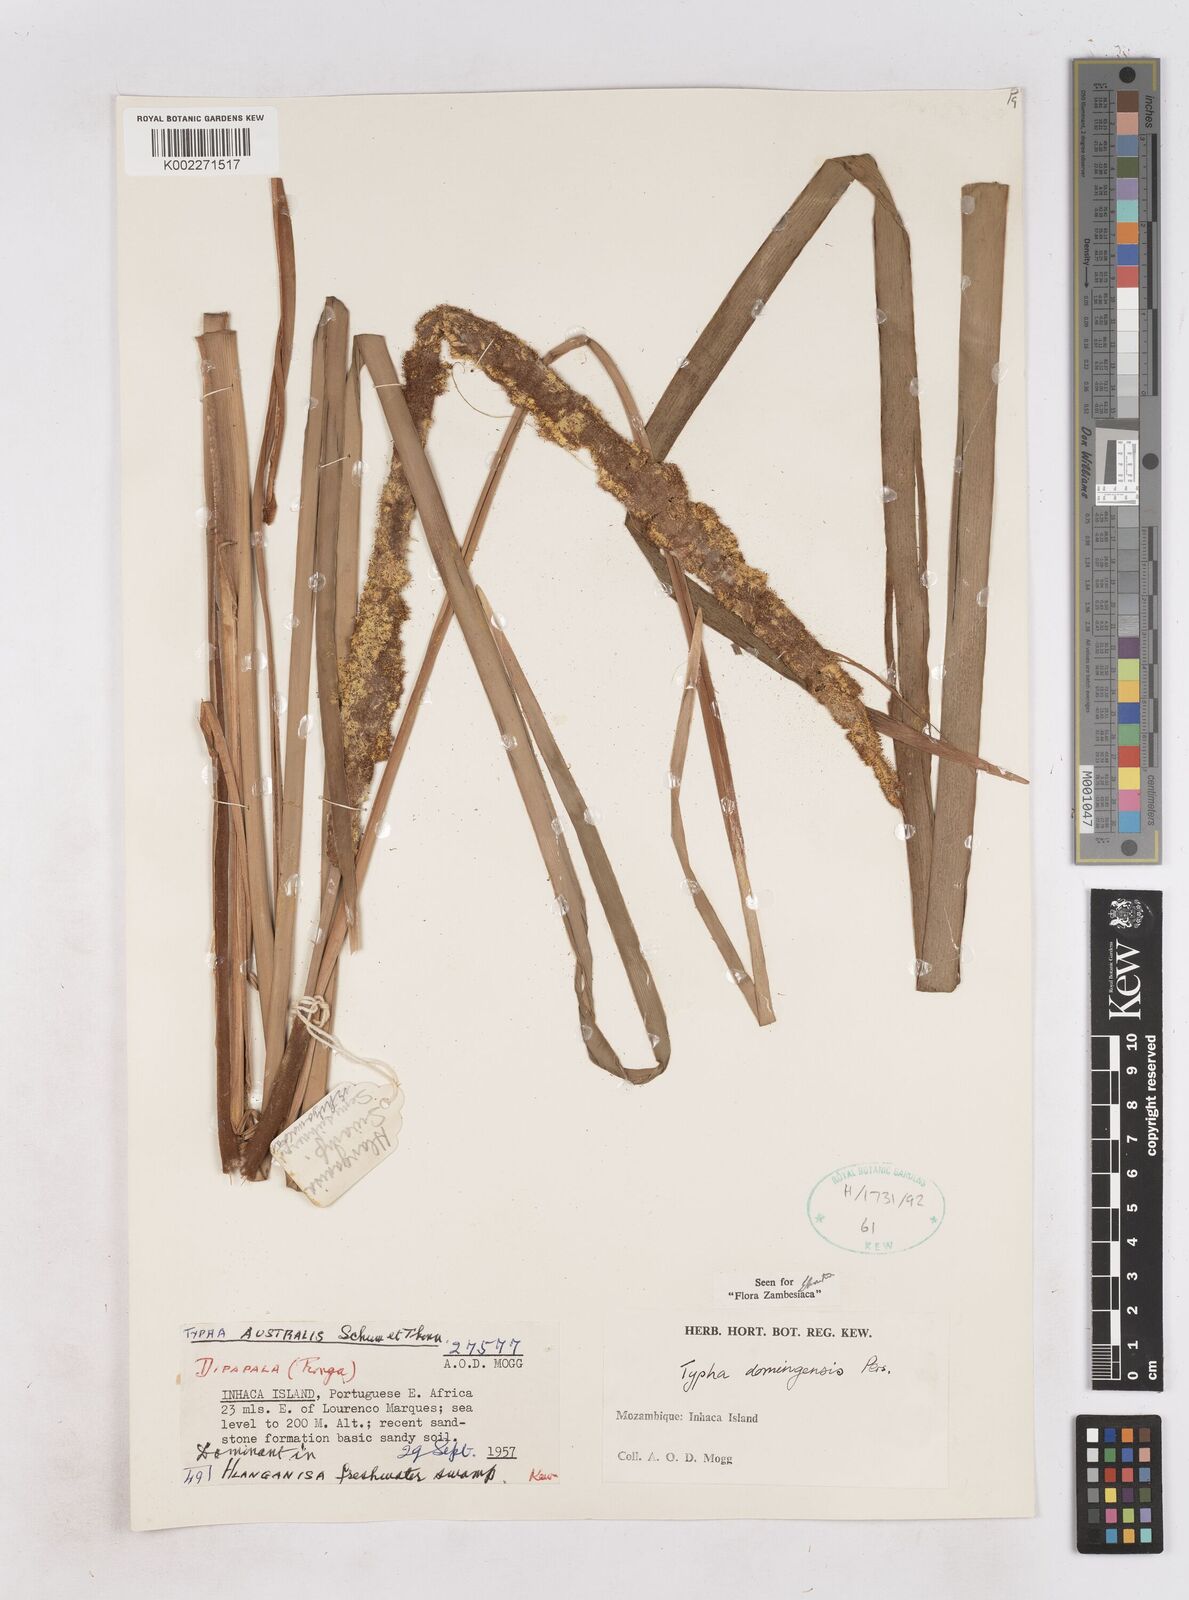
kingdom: Plantae
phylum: Tracheophyta
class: Liliopsida
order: Poales
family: Typhaceae
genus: Typha
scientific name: Typha domingensis
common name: Southern cattail
